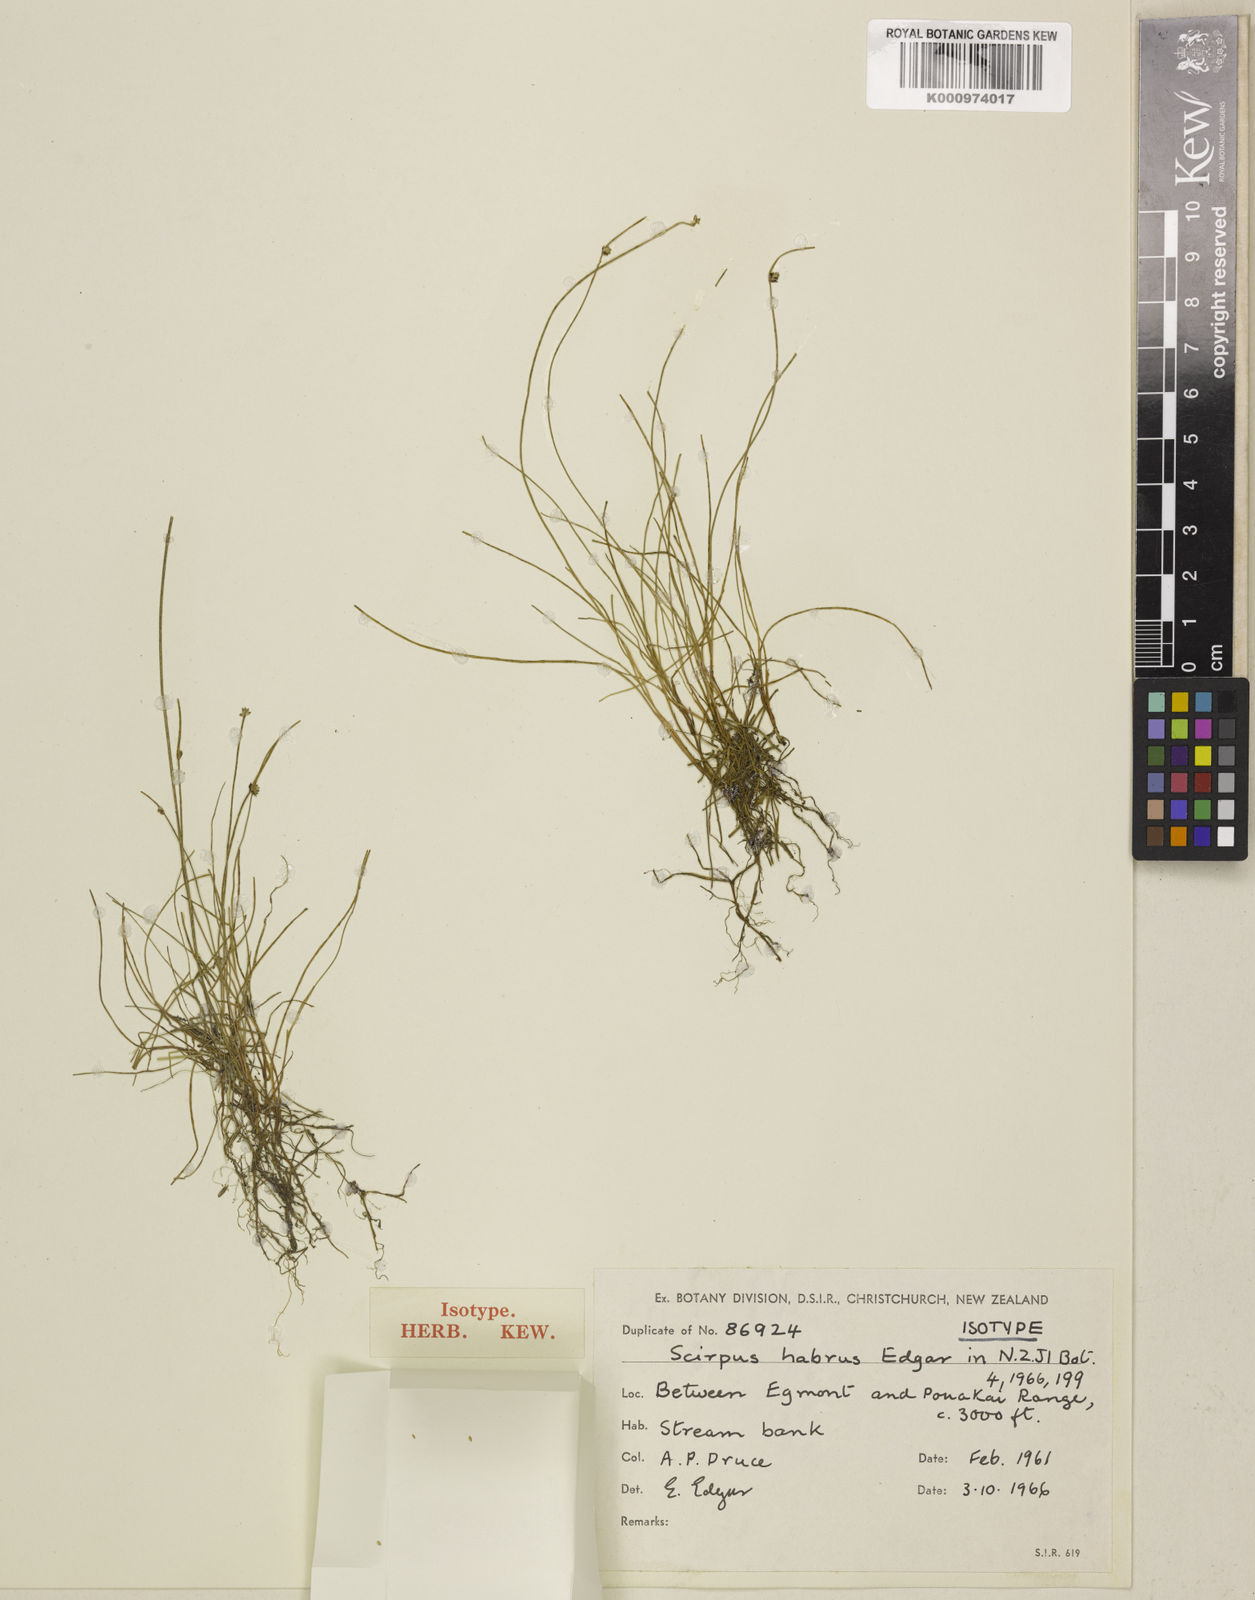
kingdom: Plantae
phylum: Tracheophyta
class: Liliopsida
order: Poales
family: Cyperaceae
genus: Isolepis
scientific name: Isolepis
